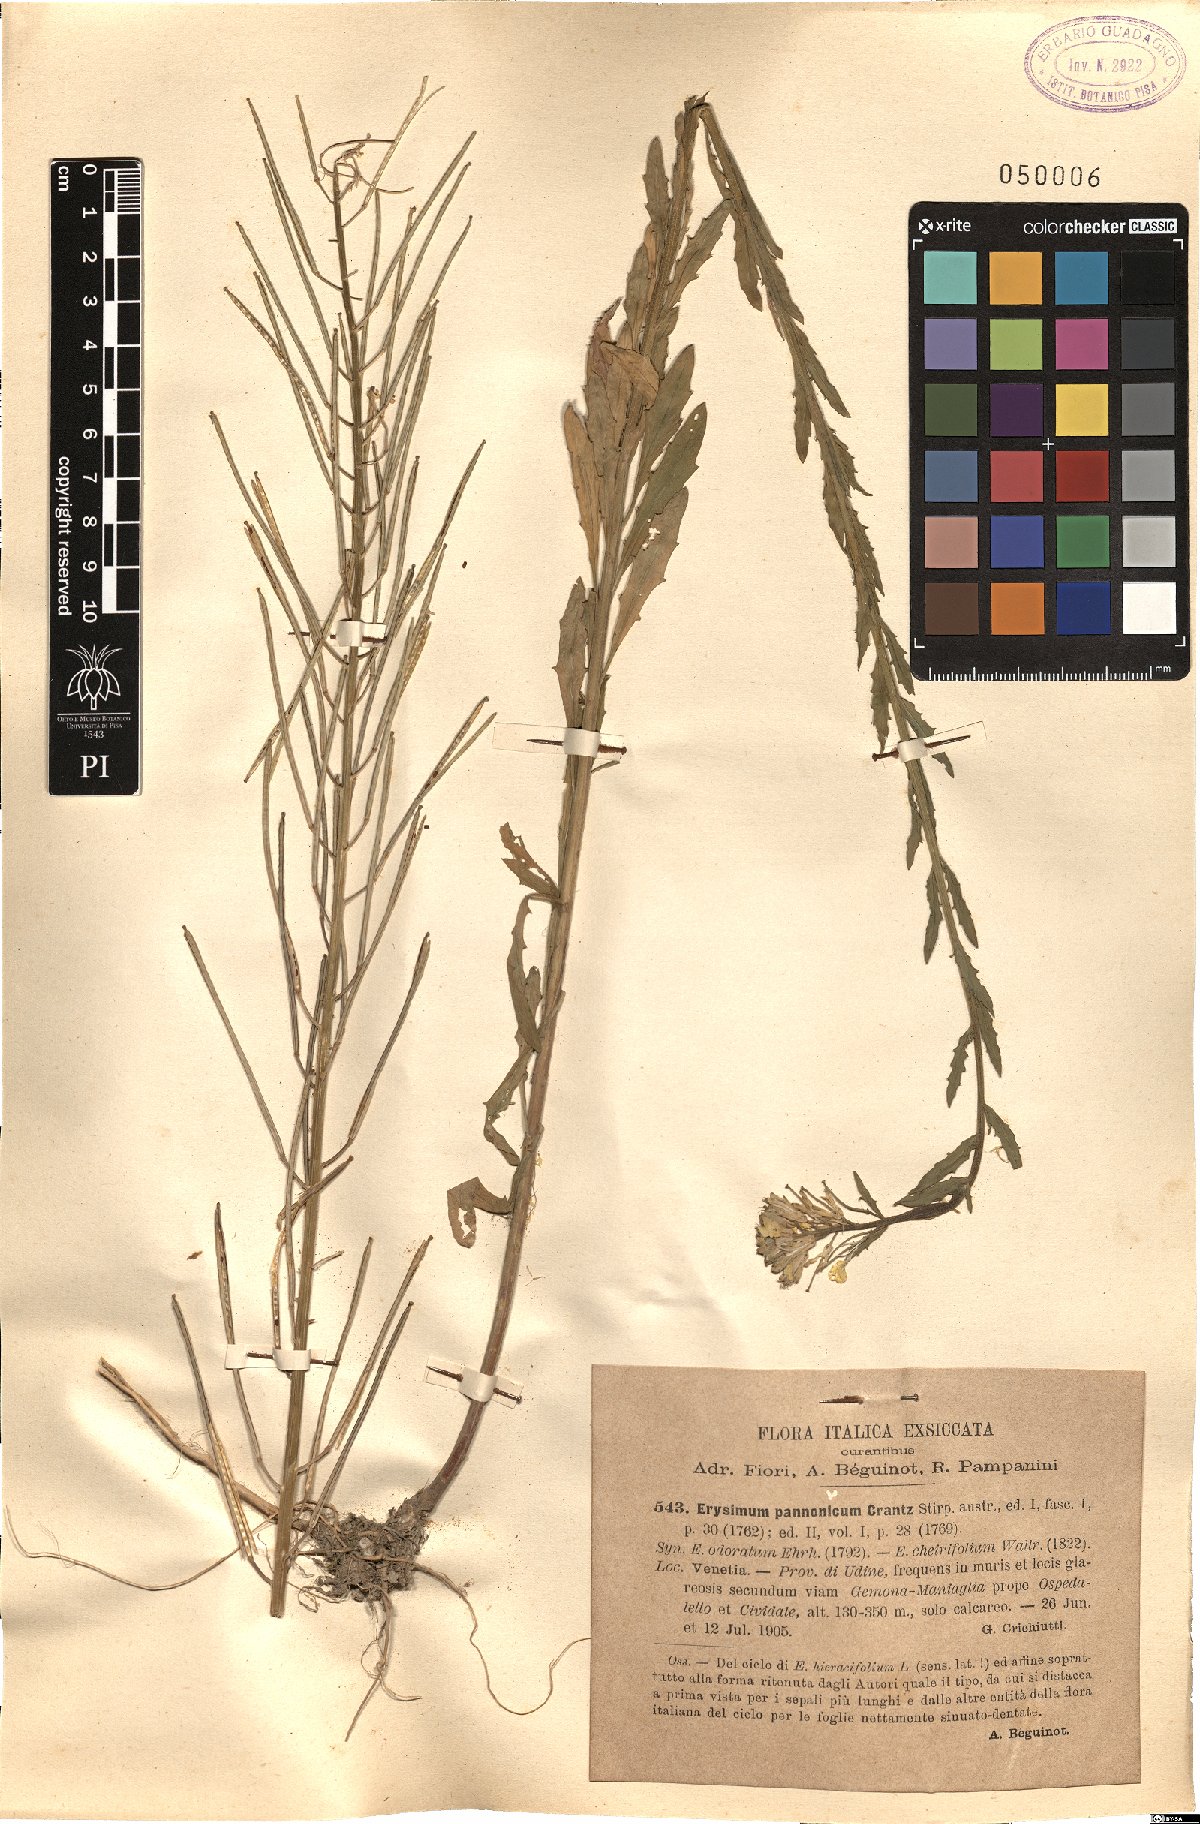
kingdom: Plantae
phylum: Tracheophyta
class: Magnoliopsida
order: Brassicales
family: Brassicaceae
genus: Erysimum
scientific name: Erysimum odoratum
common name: Smelly wallflower
